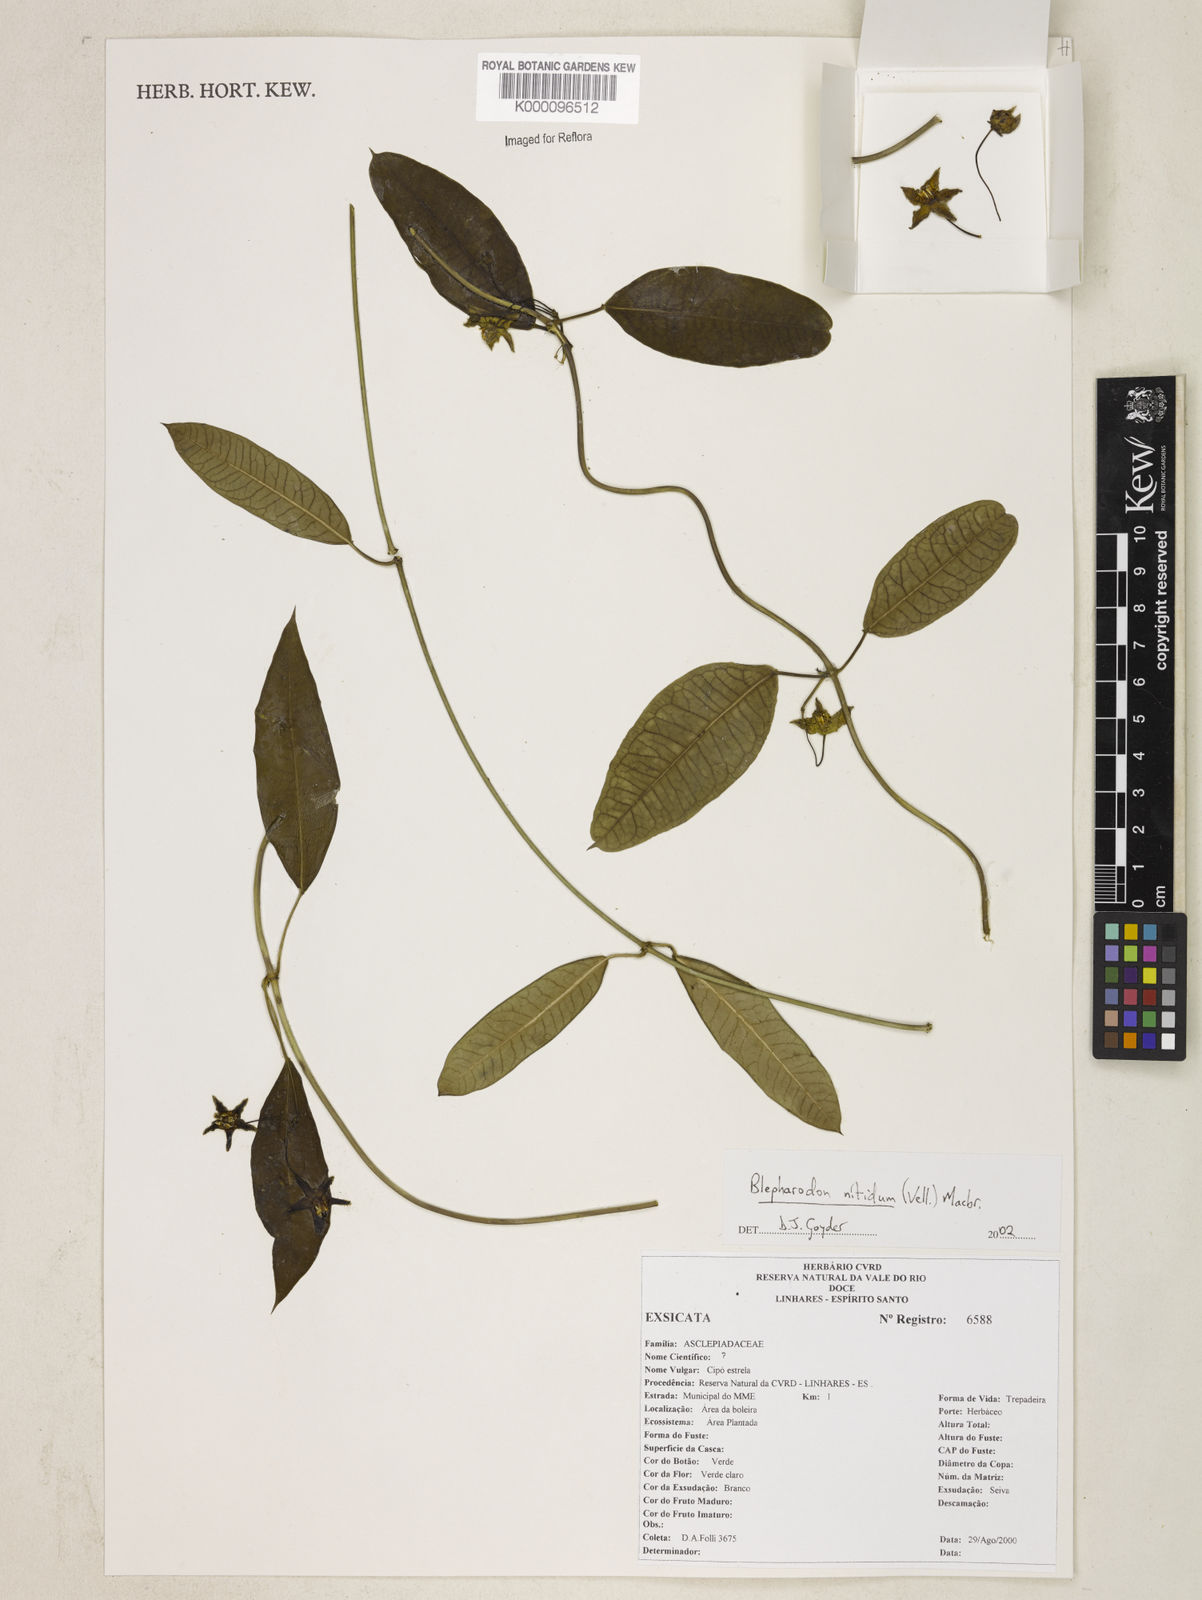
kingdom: Plantae
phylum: Tracheophyta
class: Magnoliopsida
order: Gentianales
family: Apocynaceae
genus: Blepharodon
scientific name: Blepharodon pictum
